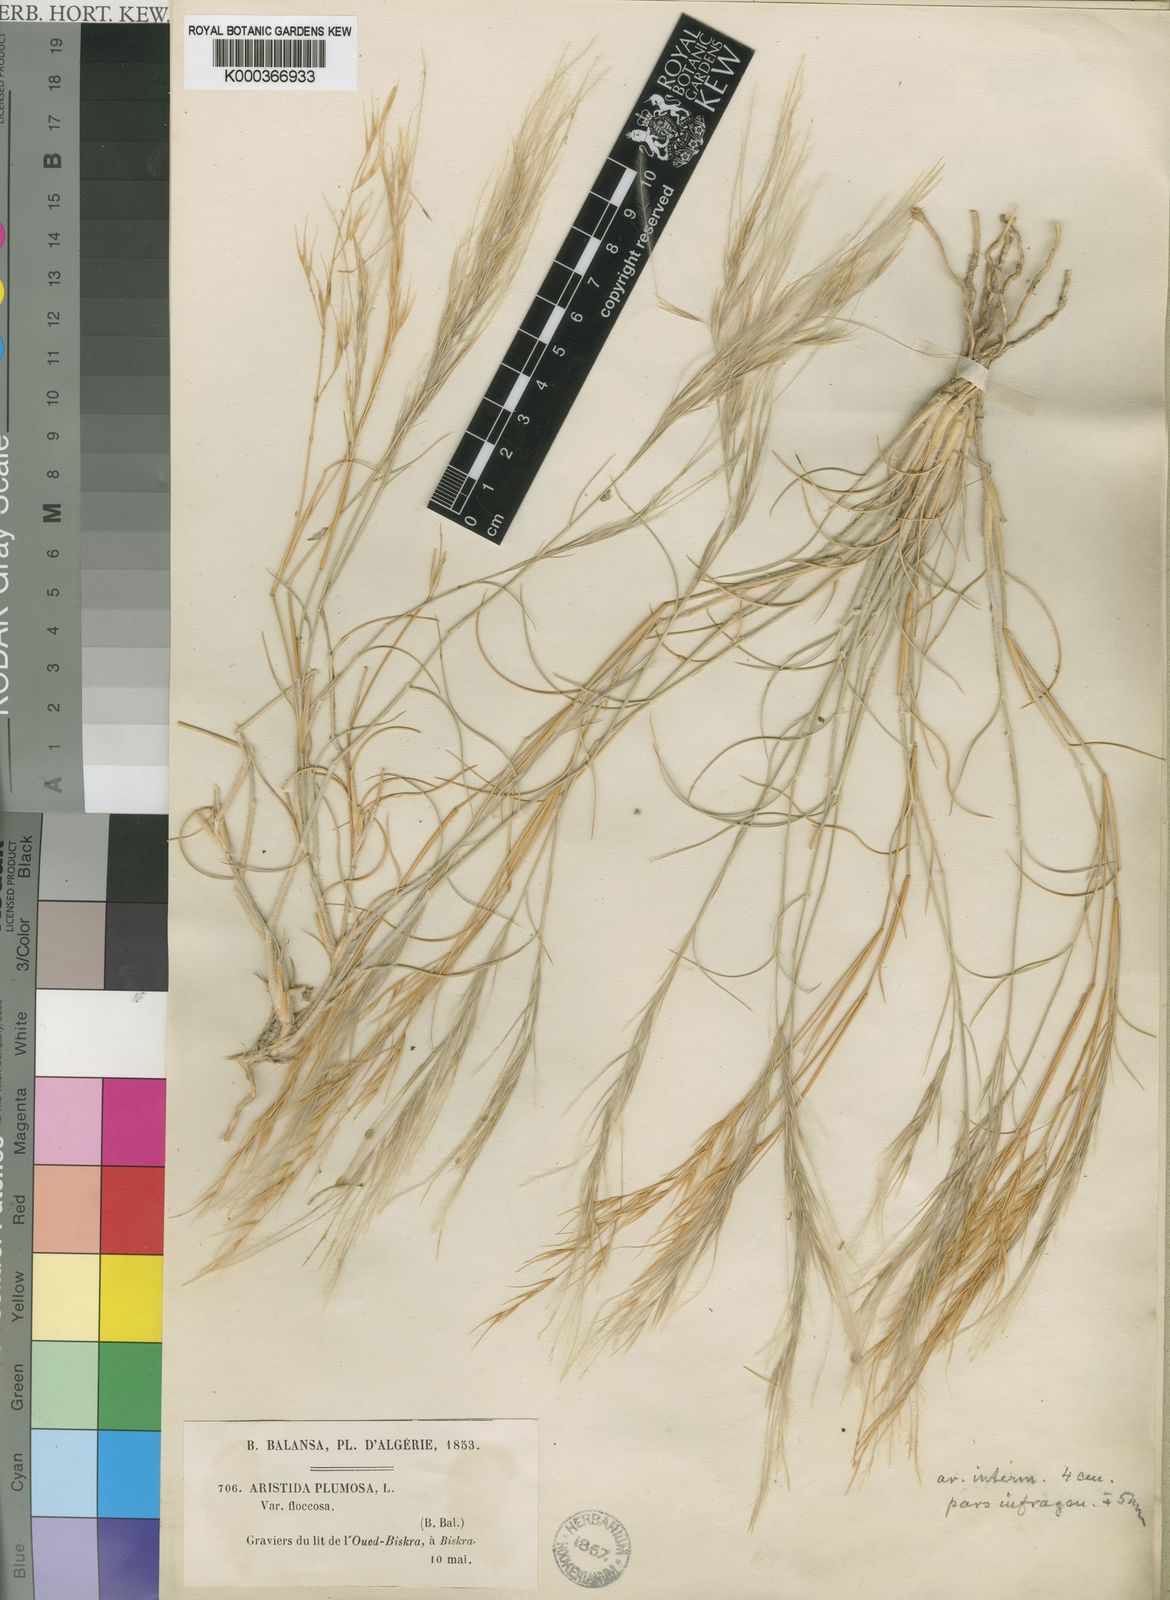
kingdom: Plantae
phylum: Tracheophyta
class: Liliopsida
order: Poales
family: Poaceae
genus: Stipagrostis
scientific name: Stipagrostis plumosa
